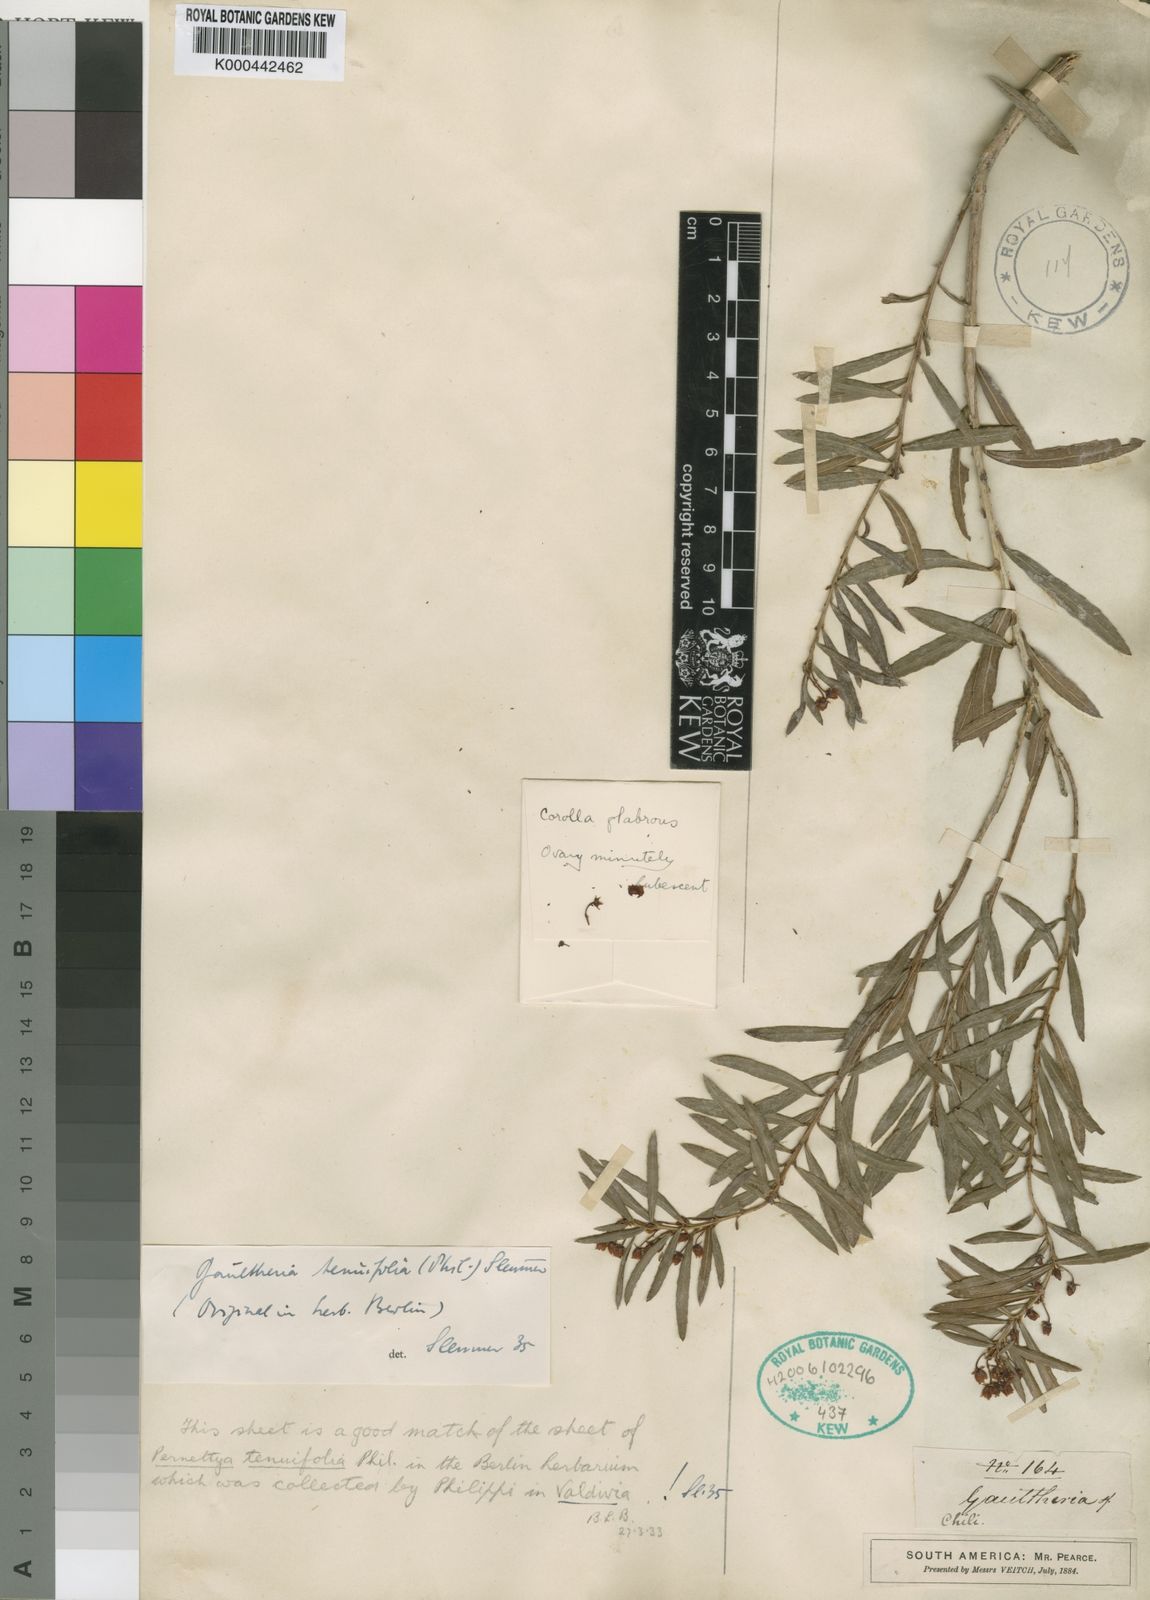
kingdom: Plantae
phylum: Tracheophyta
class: Magnoliopsida
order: Ericales
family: Ericaceae
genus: Gaultheria
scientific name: Gaultheria tenuifolia
